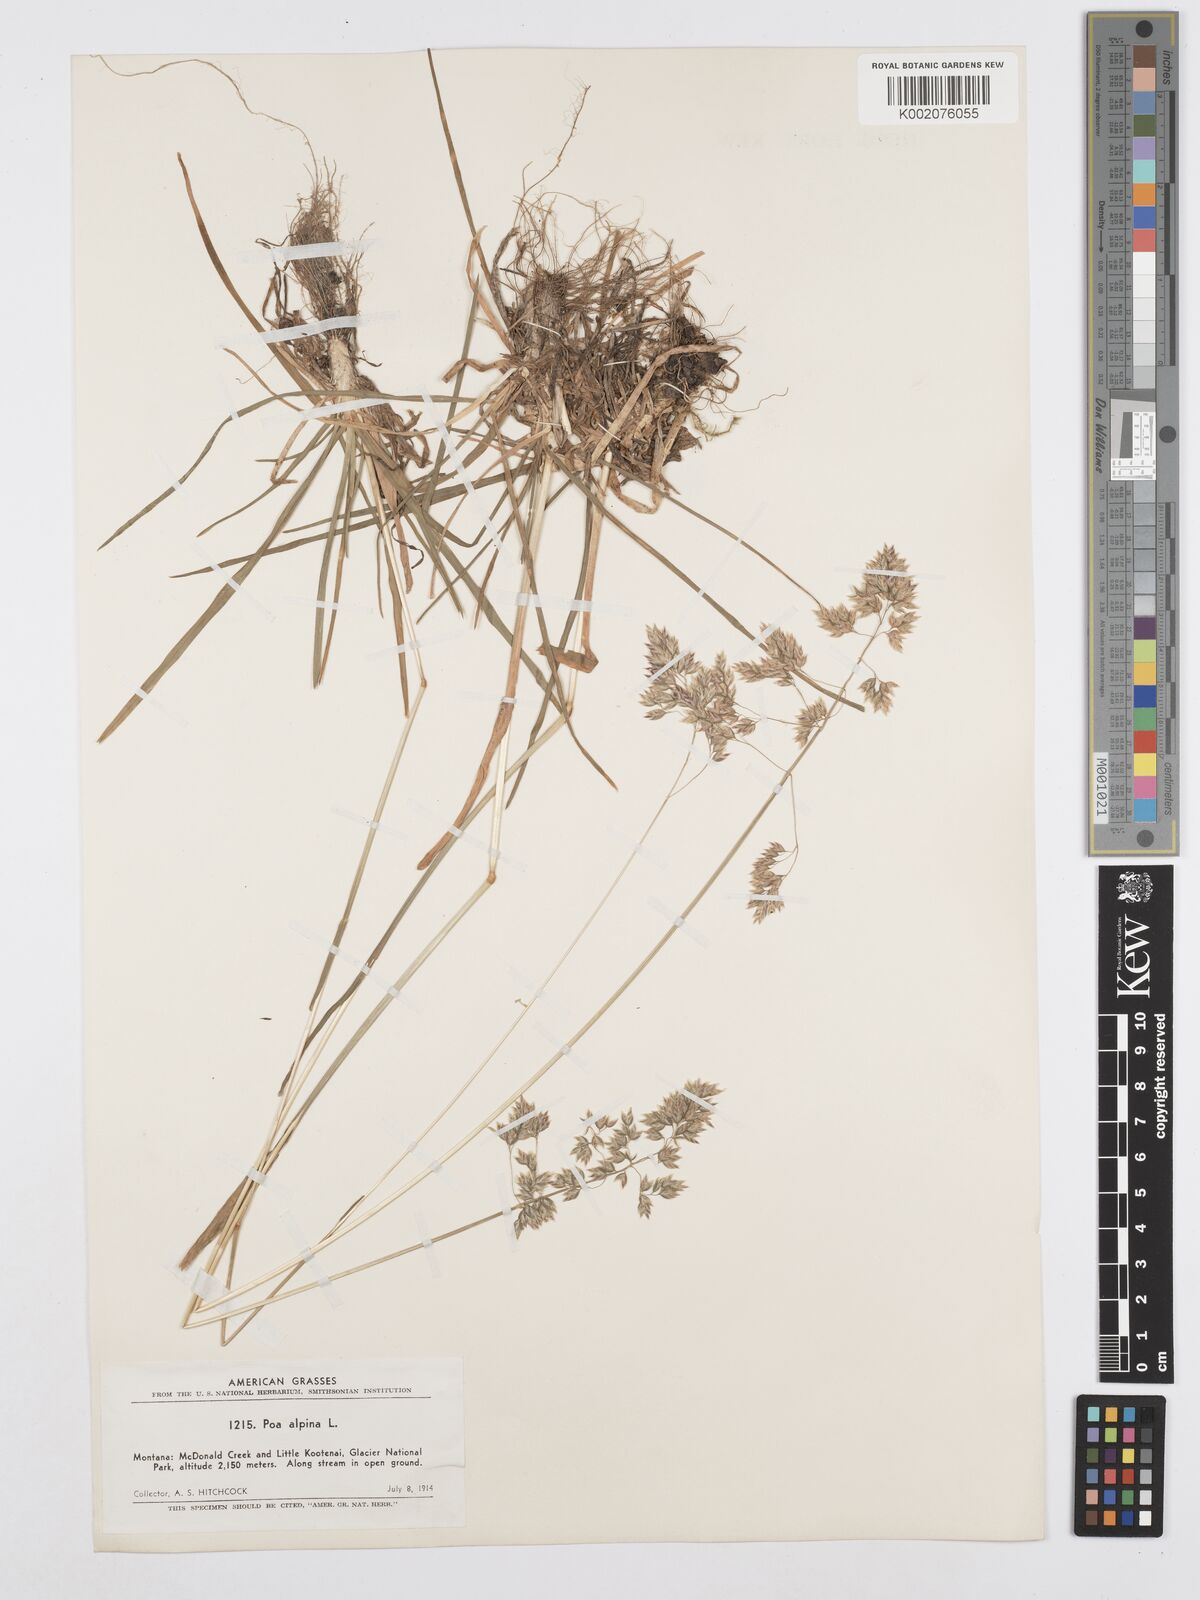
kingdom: Plantae
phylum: Tracheophyta
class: Liliopsida
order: Poales
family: Poaceae
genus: Poa
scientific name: Poa alpina
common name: Alpine bluegrass
